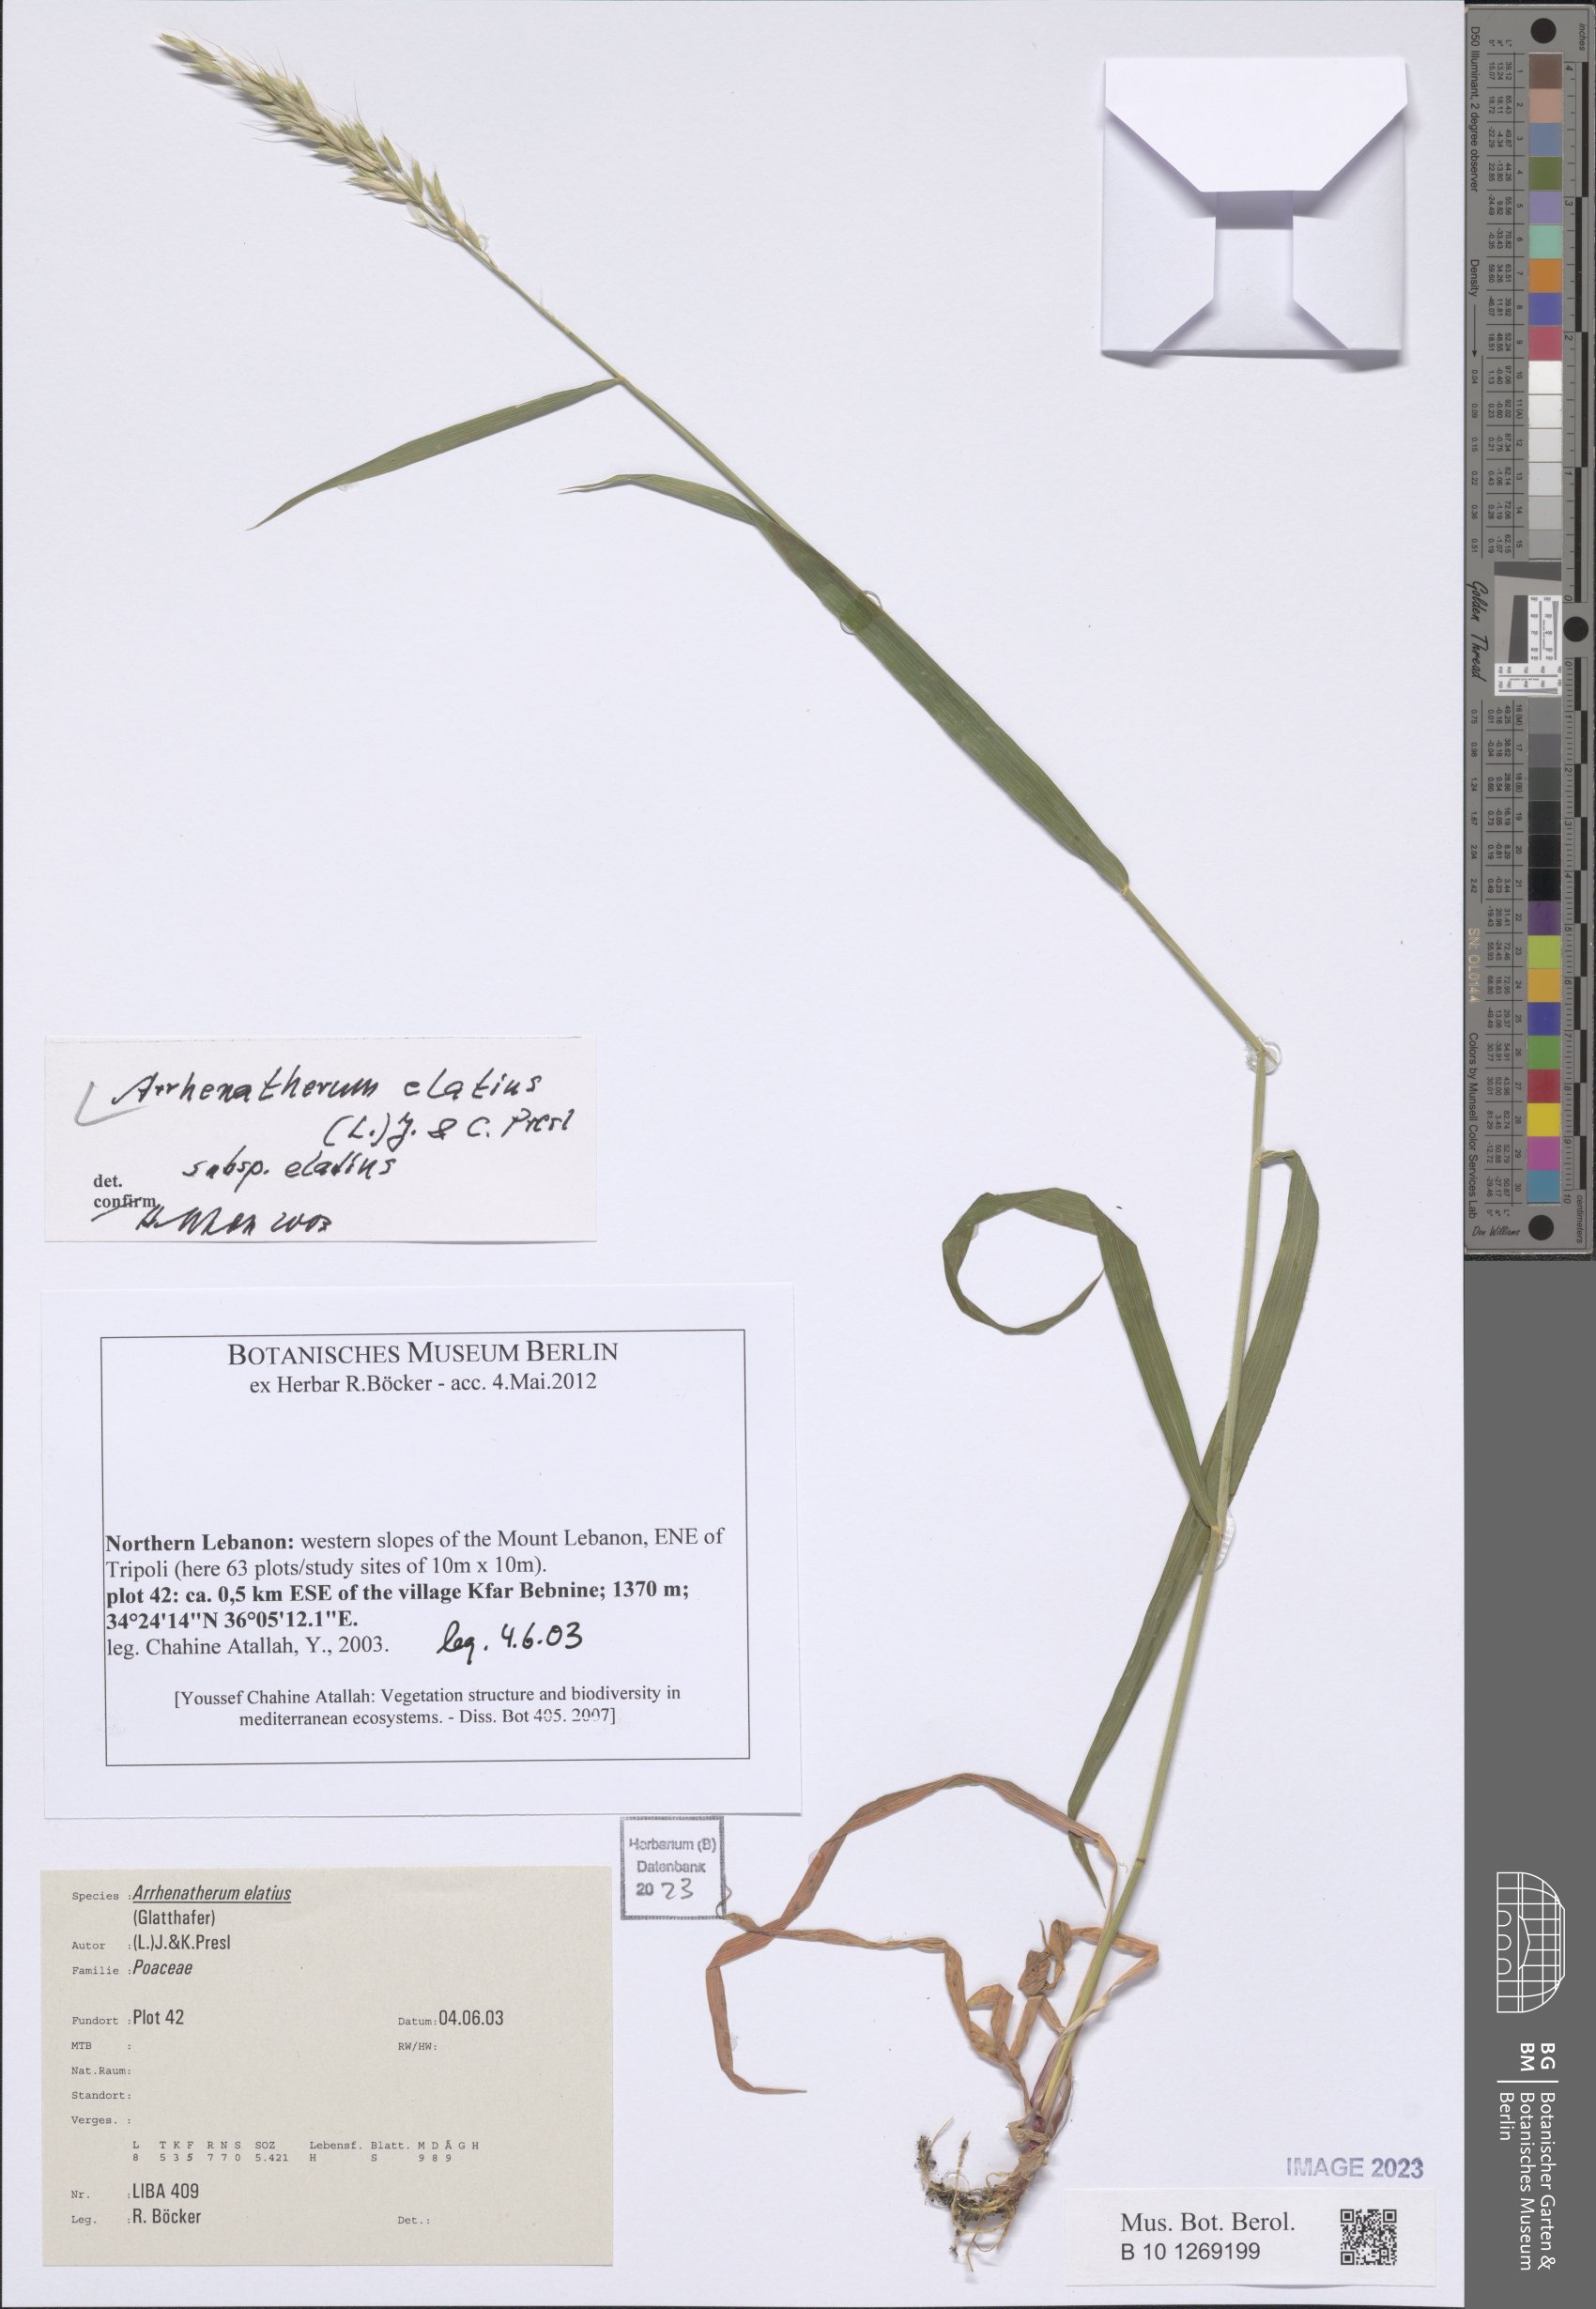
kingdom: Plantae
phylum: Tracheophyta
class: Liliopsida
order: Poales
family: Poaceae
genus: Arrhenatherum
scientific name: Arrhenatherum elatius
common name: Tall oatgrass
